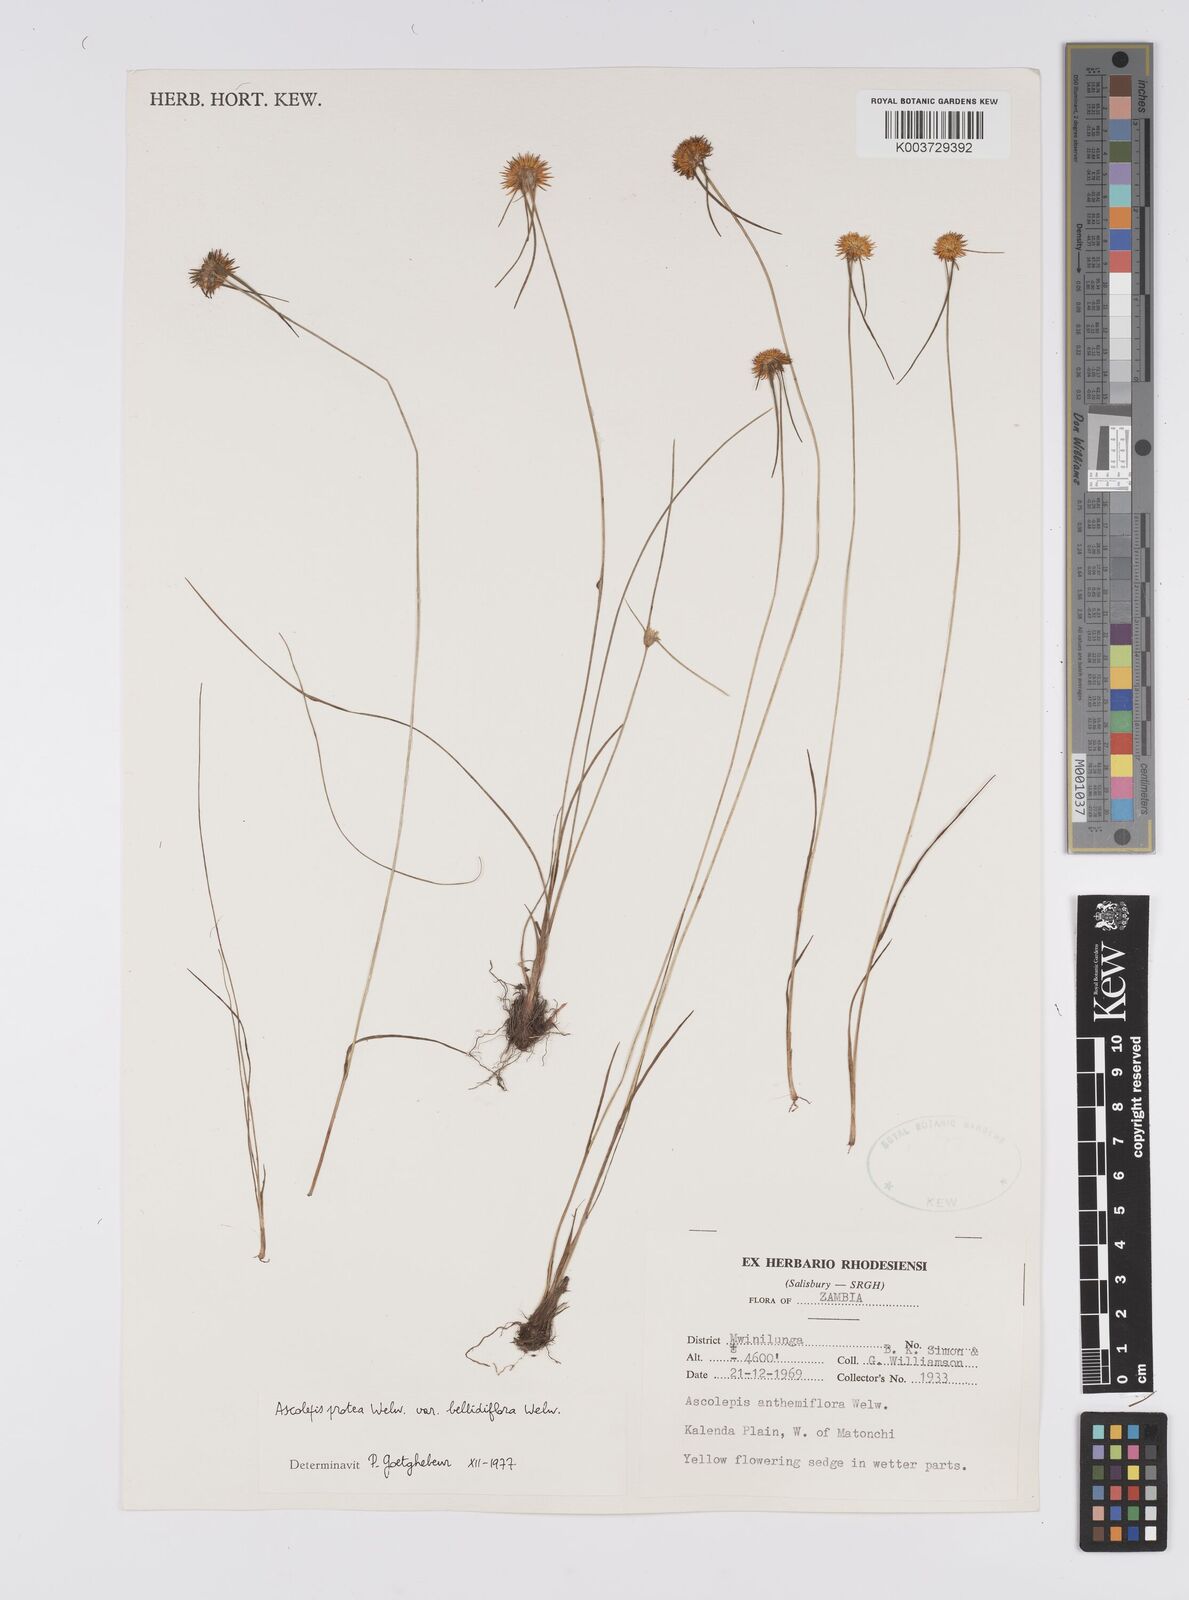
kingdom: Plantae
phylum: Tracheophyta
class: Liliopsida
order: Poales
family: Cyperaceae
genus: Cyperus
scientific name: Cyperus proteus
